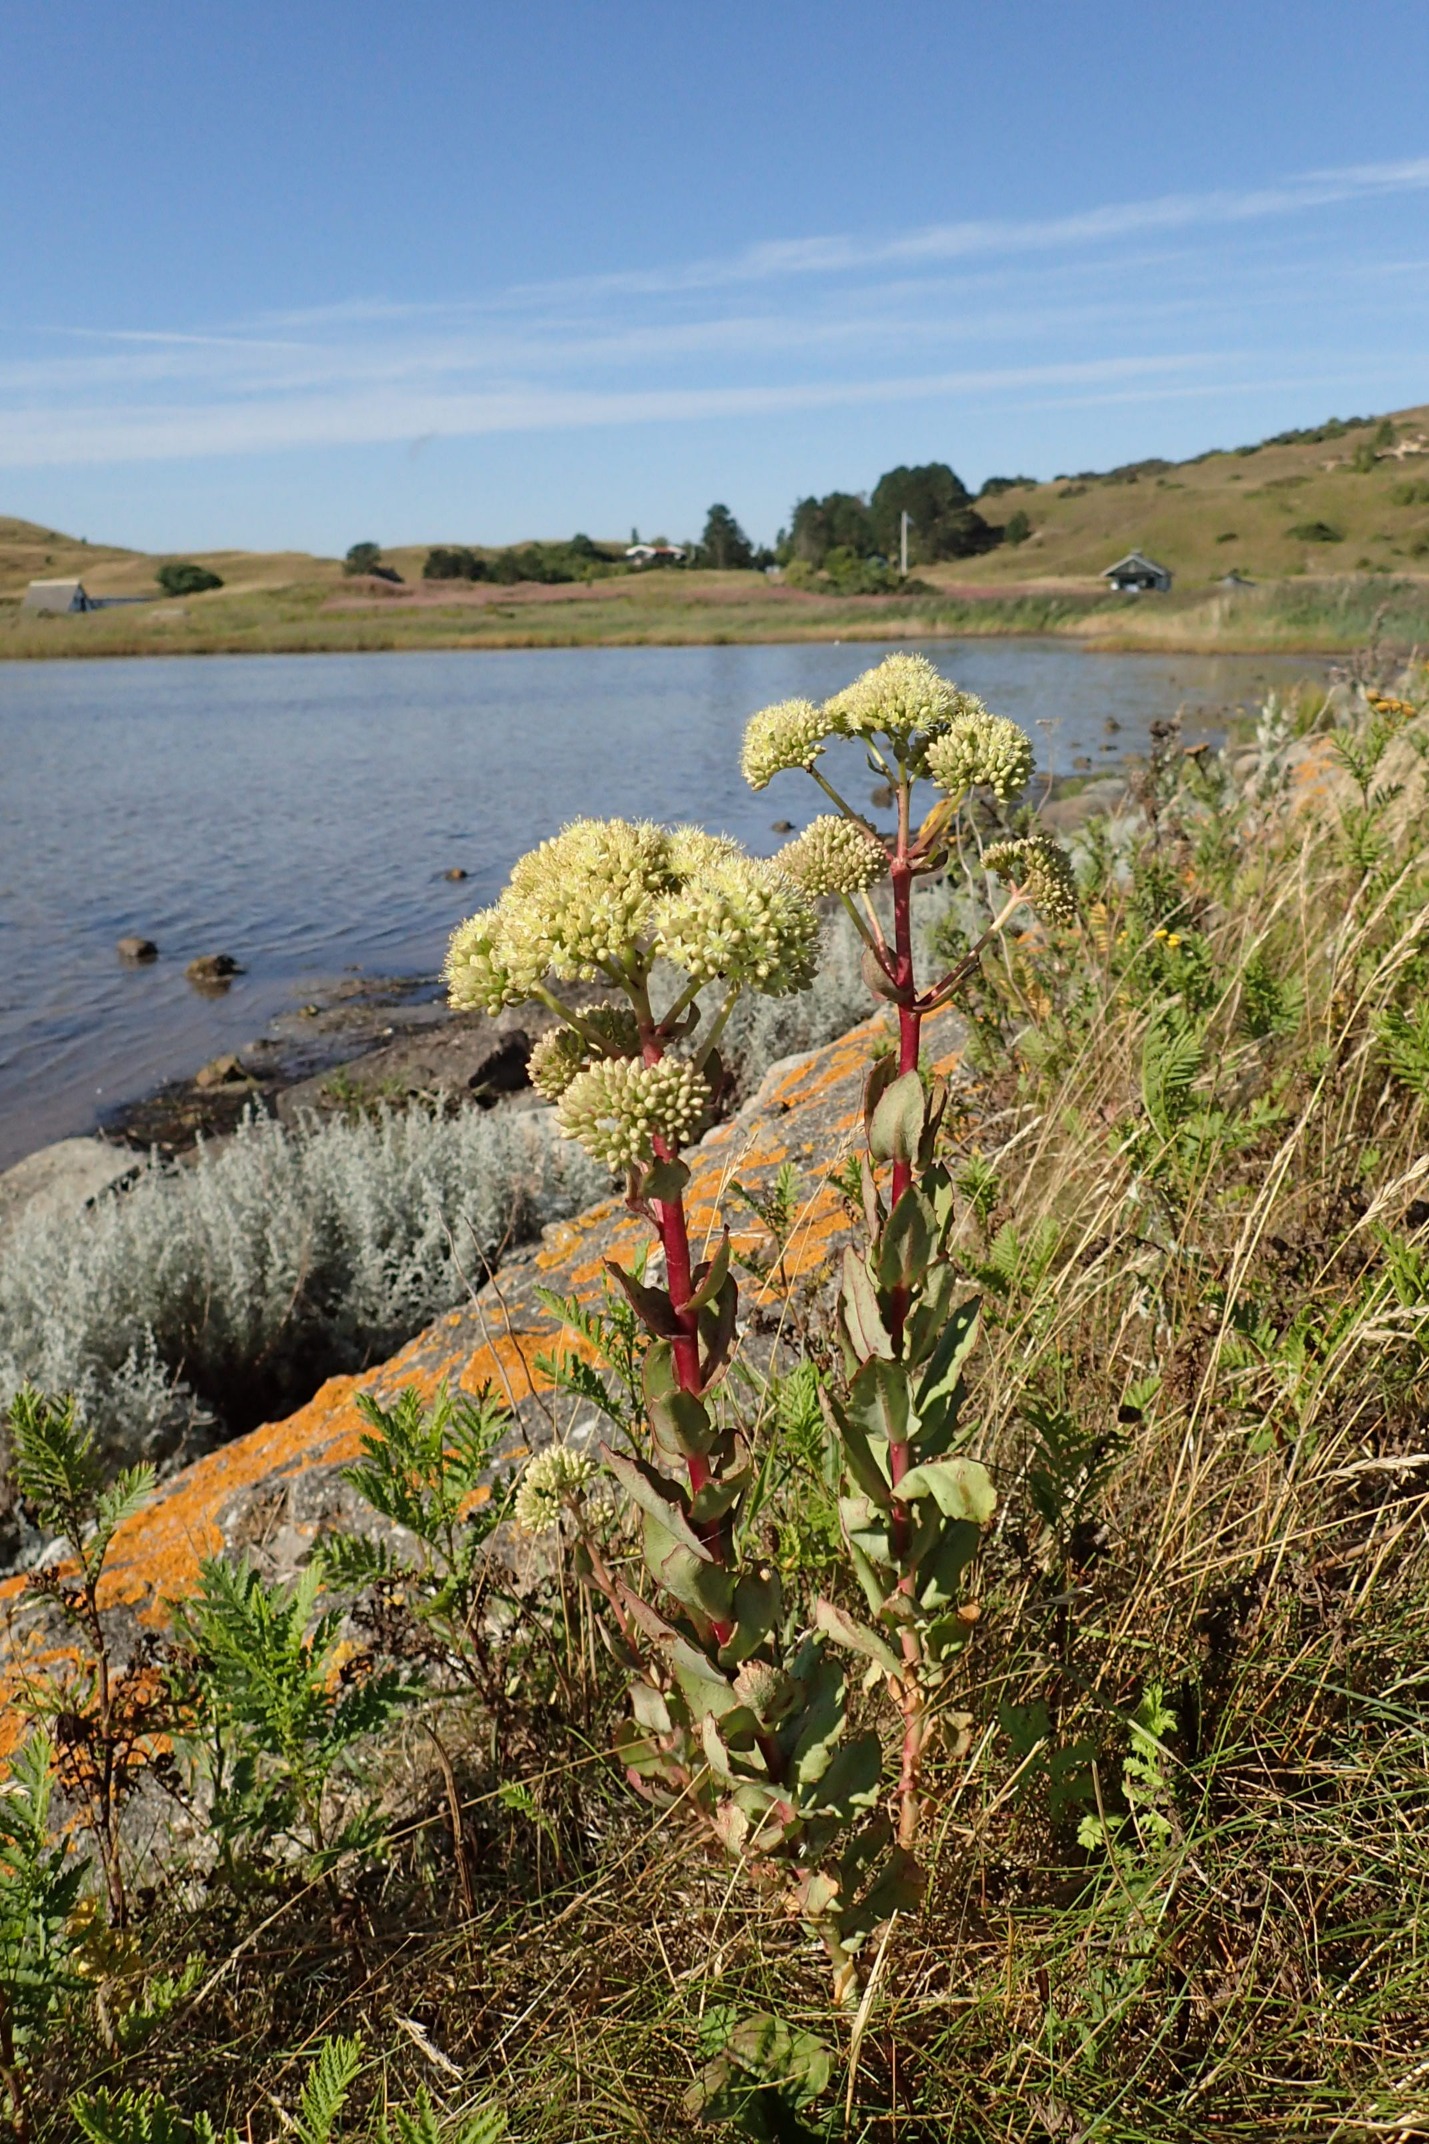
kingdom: Plantae
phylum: Tracheophyta
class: Magnoliopsida
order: Saxifragales
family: Crassulaceae
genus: Hylotelephium
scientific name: Hylotelephium maximum
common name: Almindelig sankthansurt
